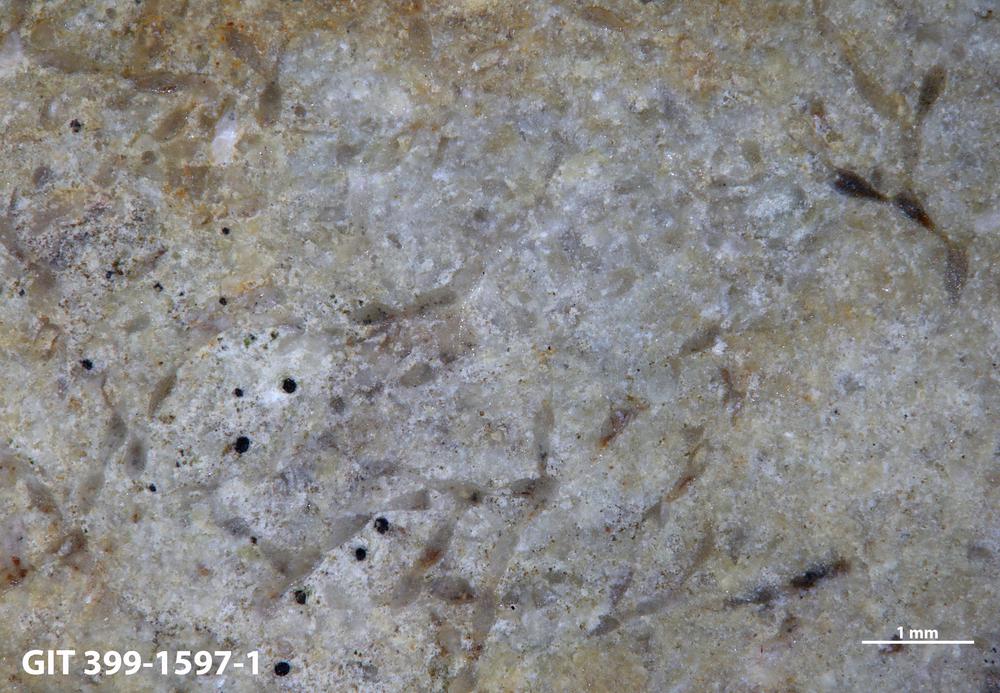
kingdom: Animalia
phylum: Bryozoa
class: Stenolaemata
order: Cyclostomatida
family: Corynotrypidae
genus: Corynotrypa
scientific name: Corynotrypa
